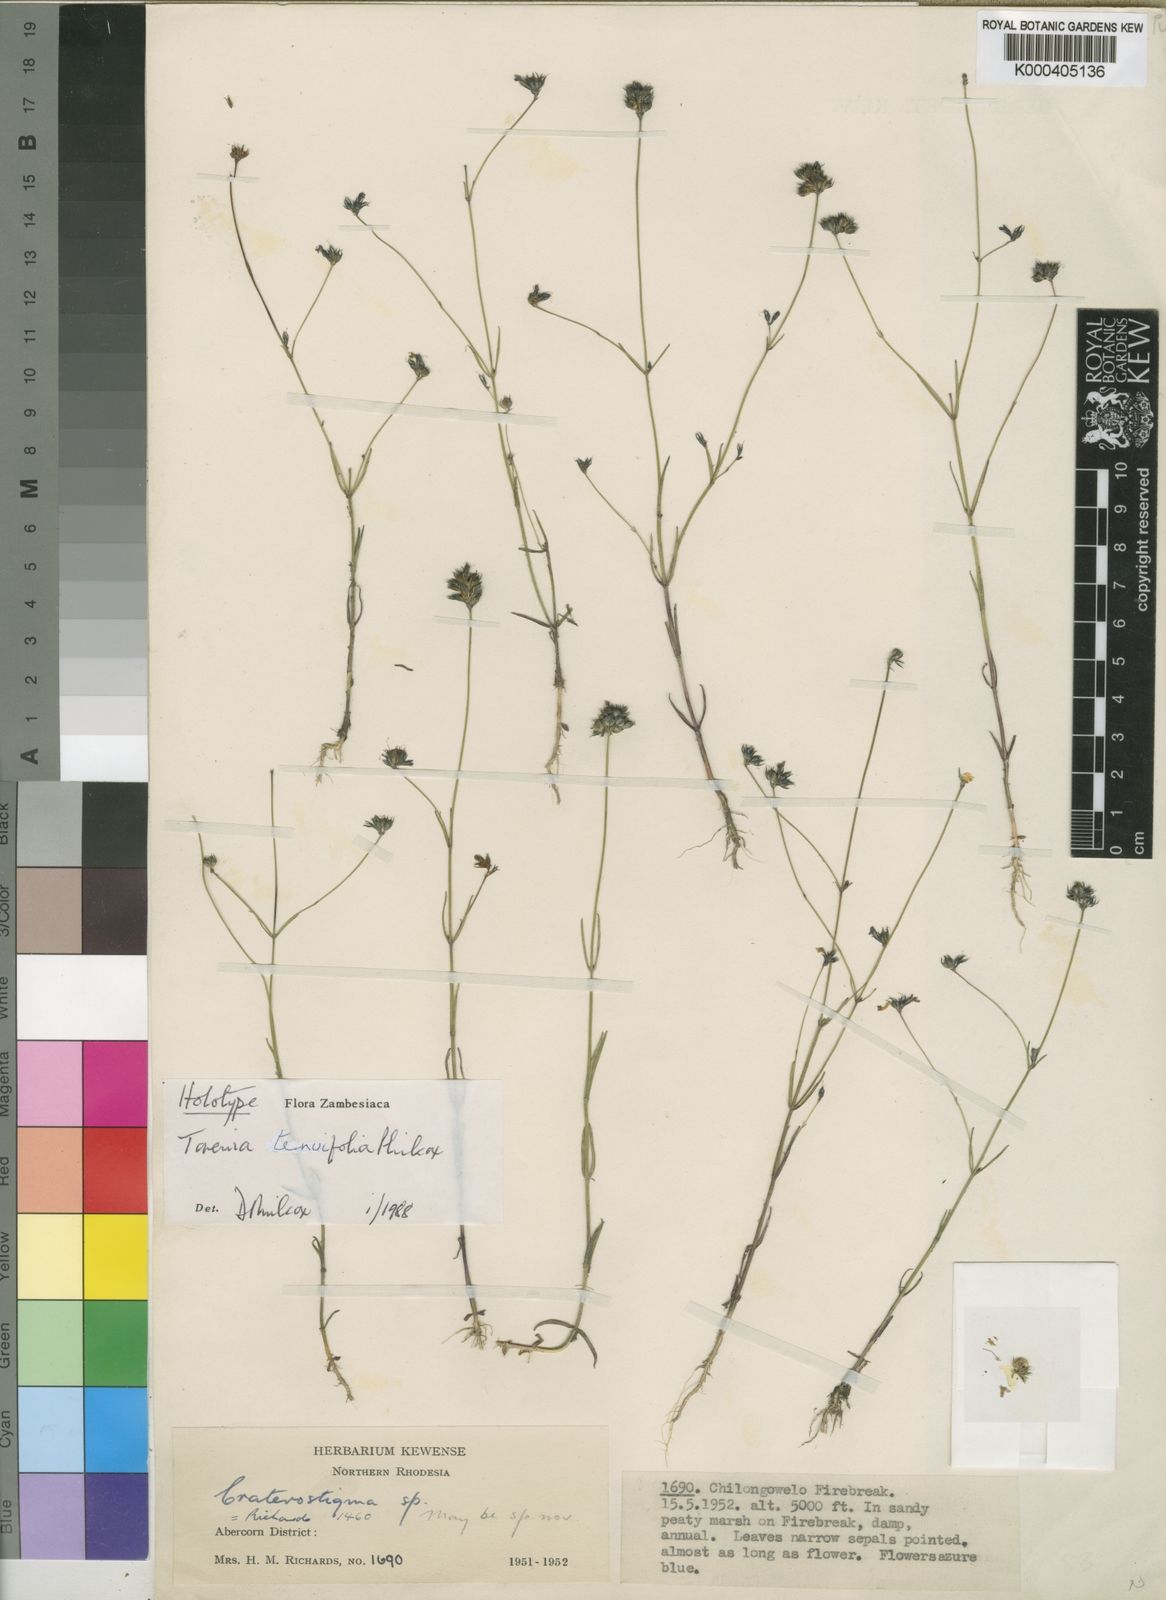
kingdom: Plantae
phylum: Tracheophyta
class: Magnoliopsida
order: Lamiales
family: Linderniaceae
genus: Crepidorhopalon
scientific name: Crepidorhopalon tenuifolius
